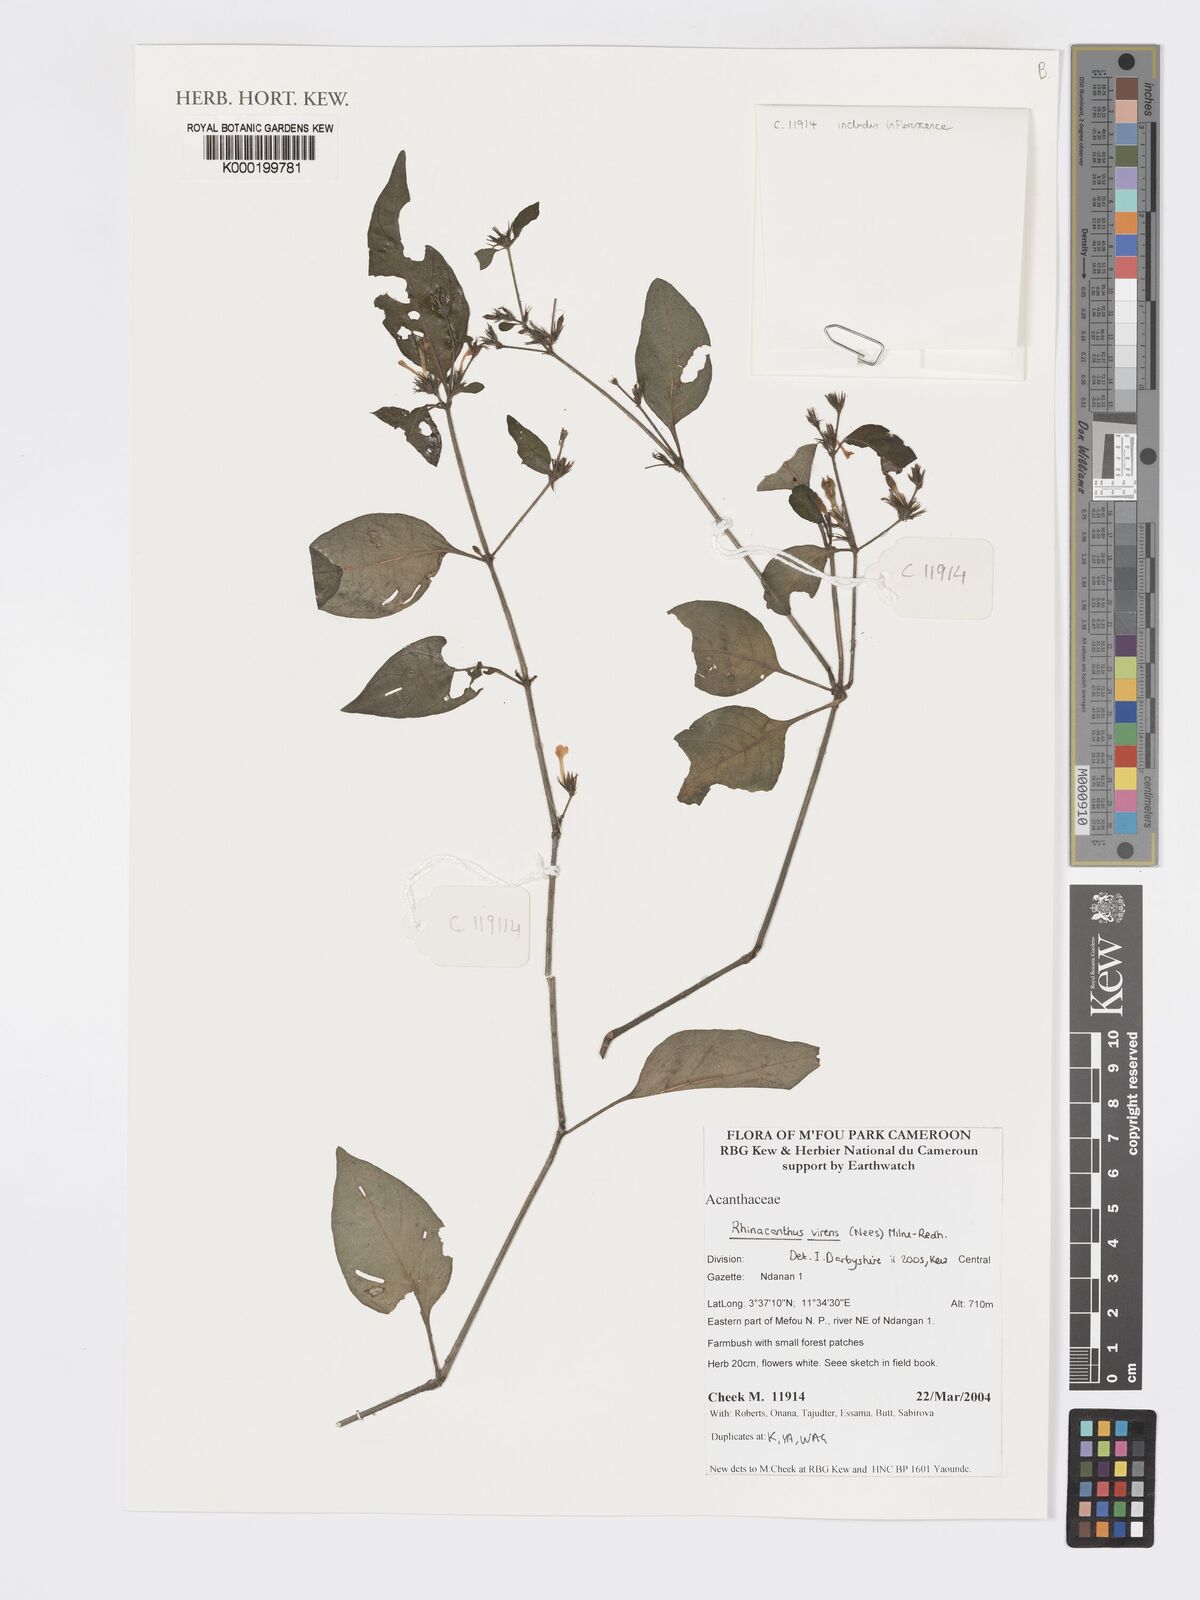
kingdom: Plantae
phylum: Tracheophyta
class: Magnoliopsida
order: Lamiales
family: Acanthaceae
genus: Rhinacanthus
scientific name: Rhinacanthus virens
